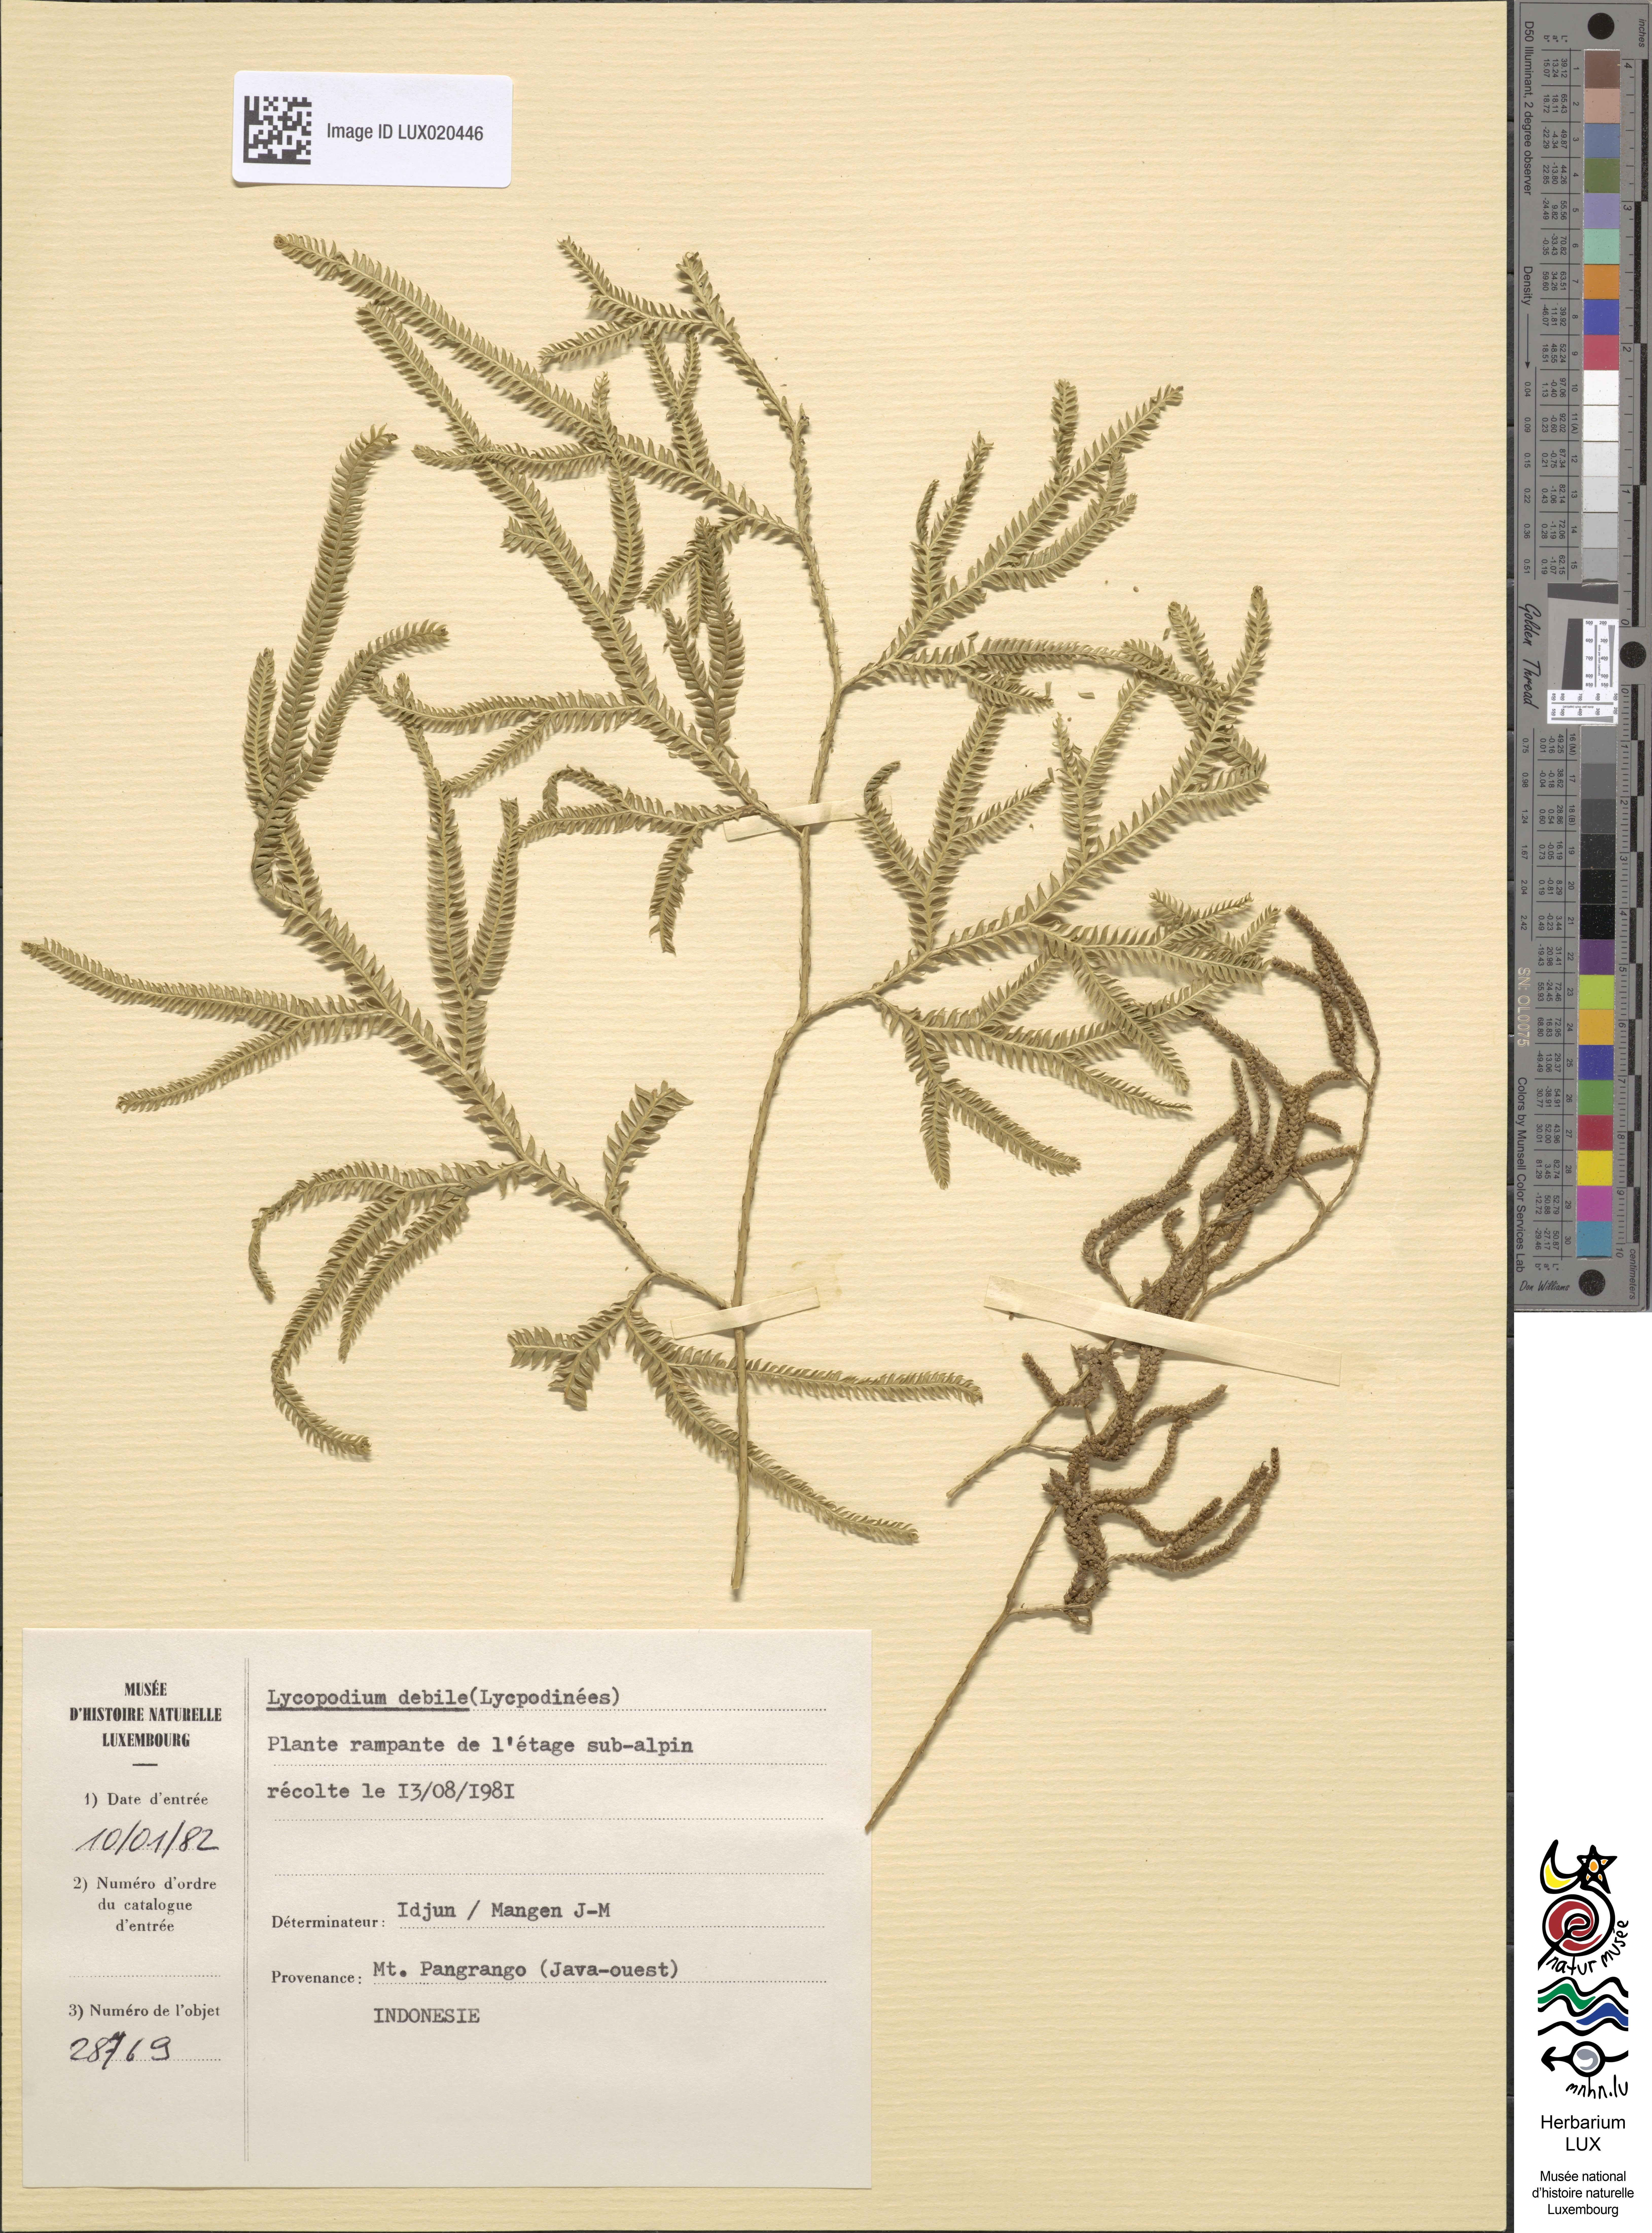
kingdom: Plantae
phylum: Tracheophyta
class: Lycopodiopsida
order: Selaginellales
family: Selaginellaceae
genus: Selaginella
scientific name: Selaginella tenera
